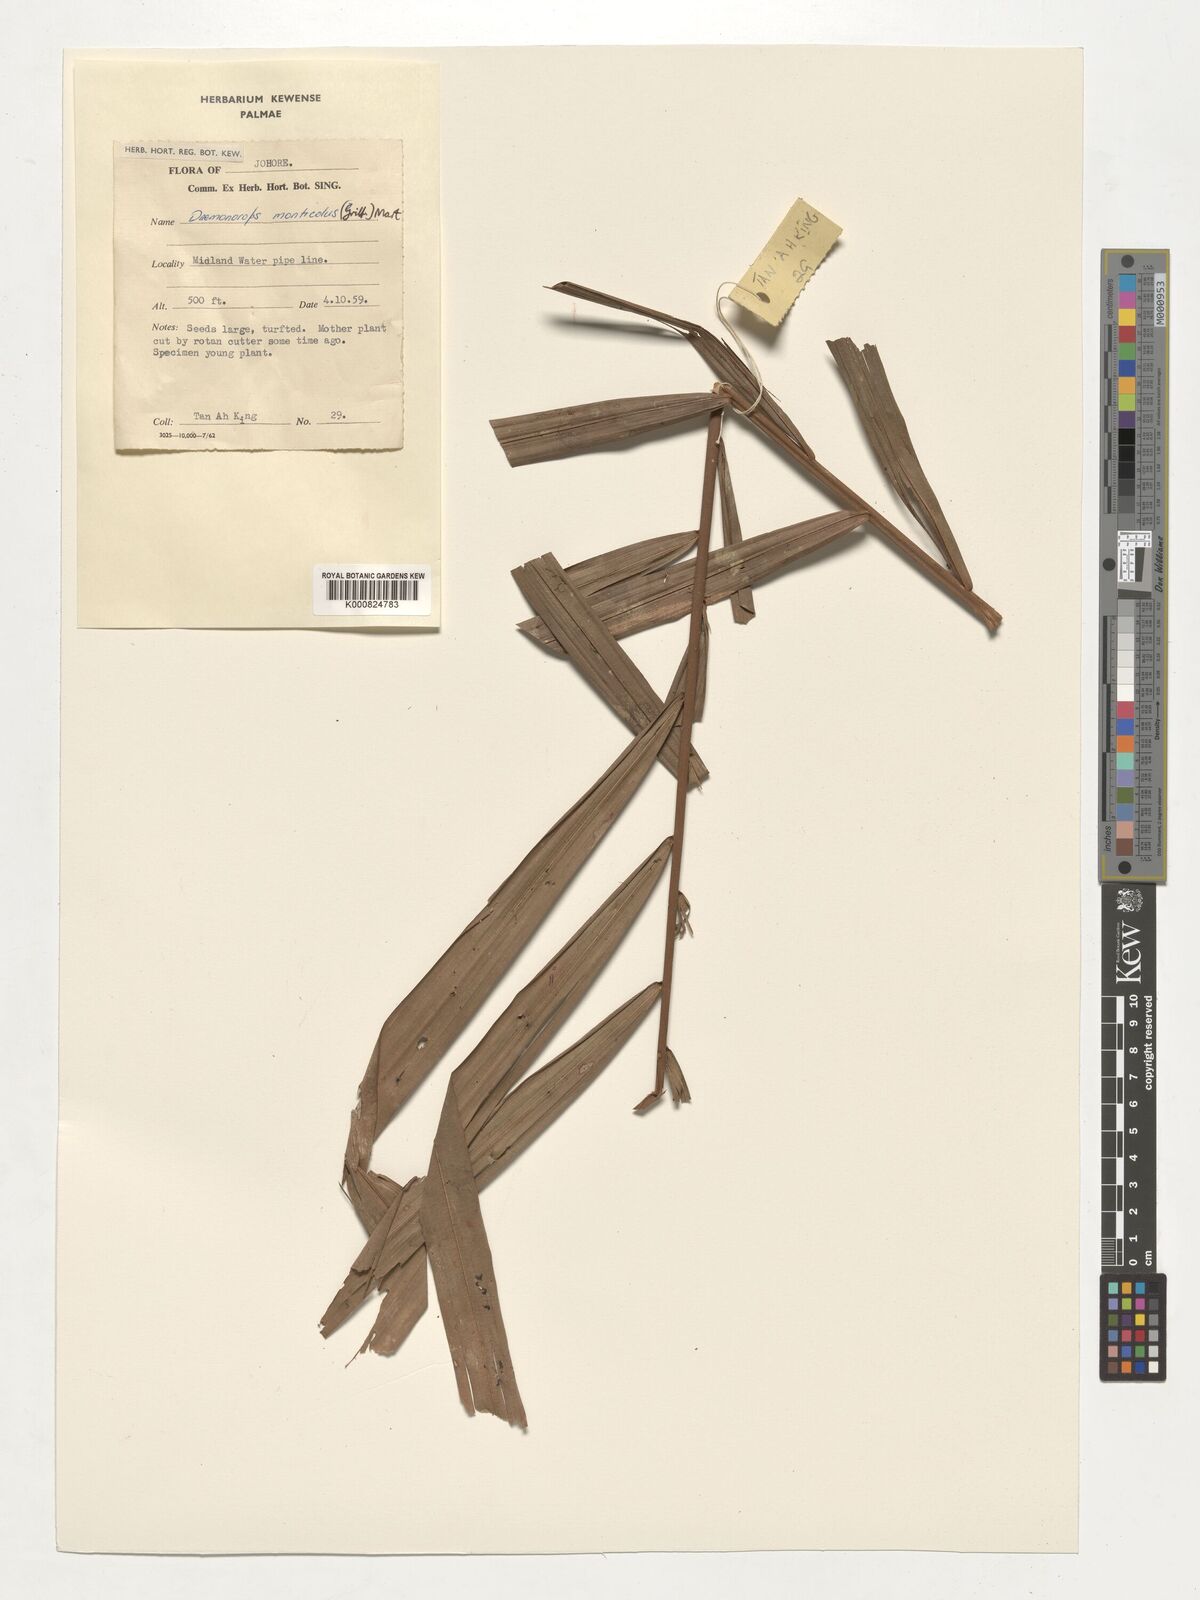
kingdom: Plantae
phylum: Tracheophyta
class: Liliopsida
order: Arecales
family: Arecaceae
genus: Calamus
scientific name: Calamus melanochaetes
